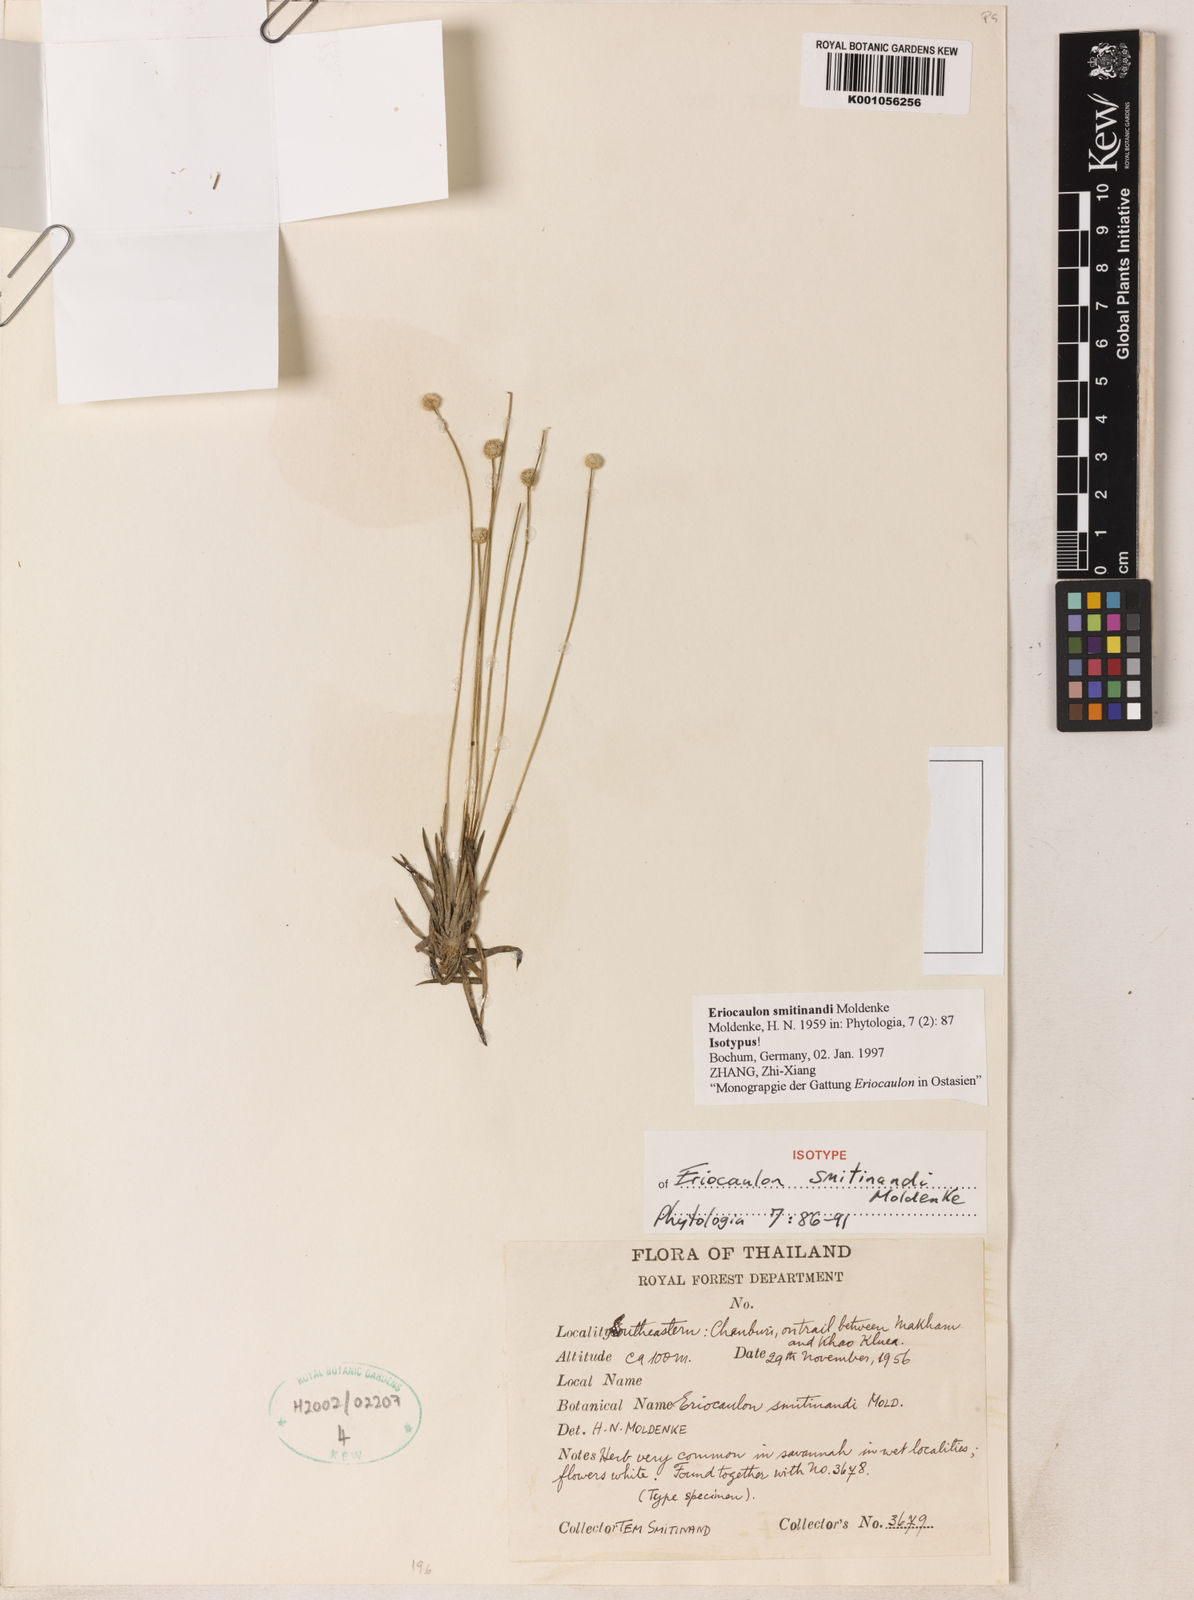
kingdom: Plantae
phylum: Tracheophyta
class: Liliopsida
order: Poales
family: Eriocaulaceae
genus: Eriocaulon
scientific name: Eriocaulon smitinandii
